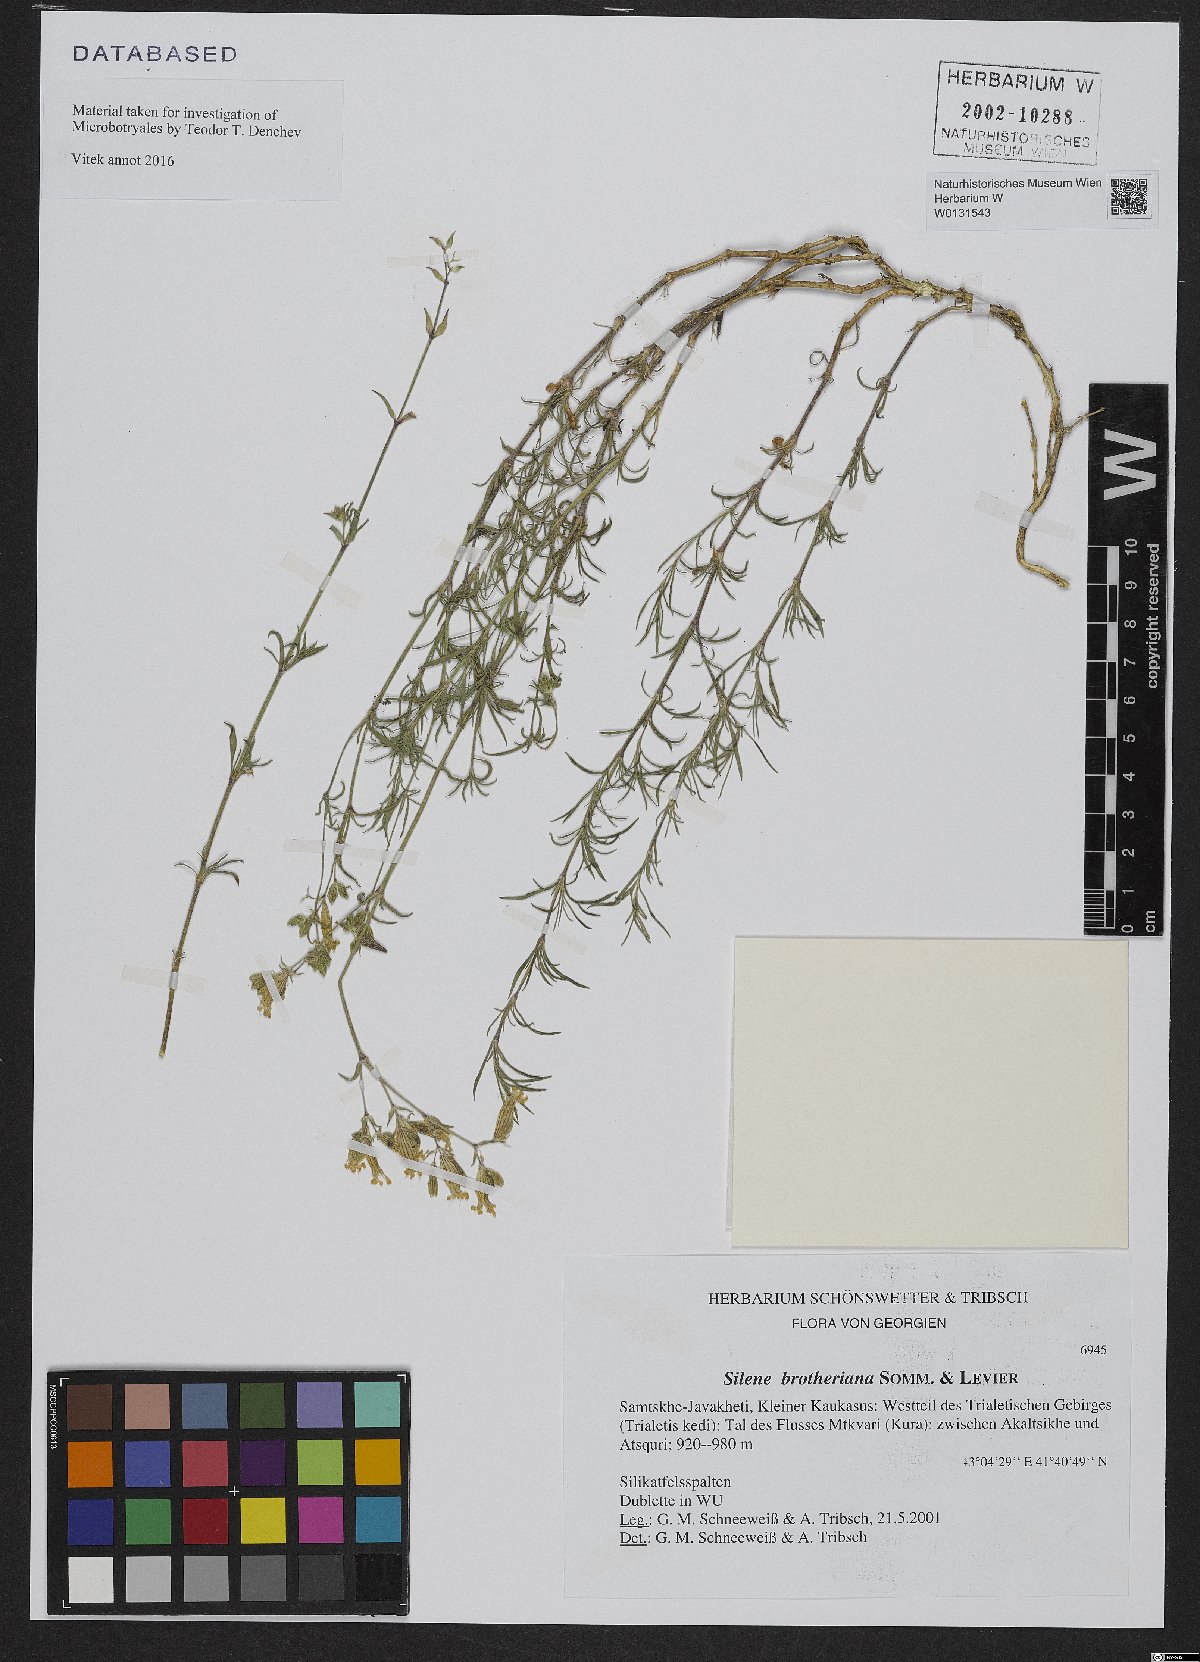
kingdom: Plantae
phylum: Tracheophyta
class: Magnoliopsida
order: Caryophyllales
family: Caryophyllaceae
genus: Silene
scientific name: Silene argentea
